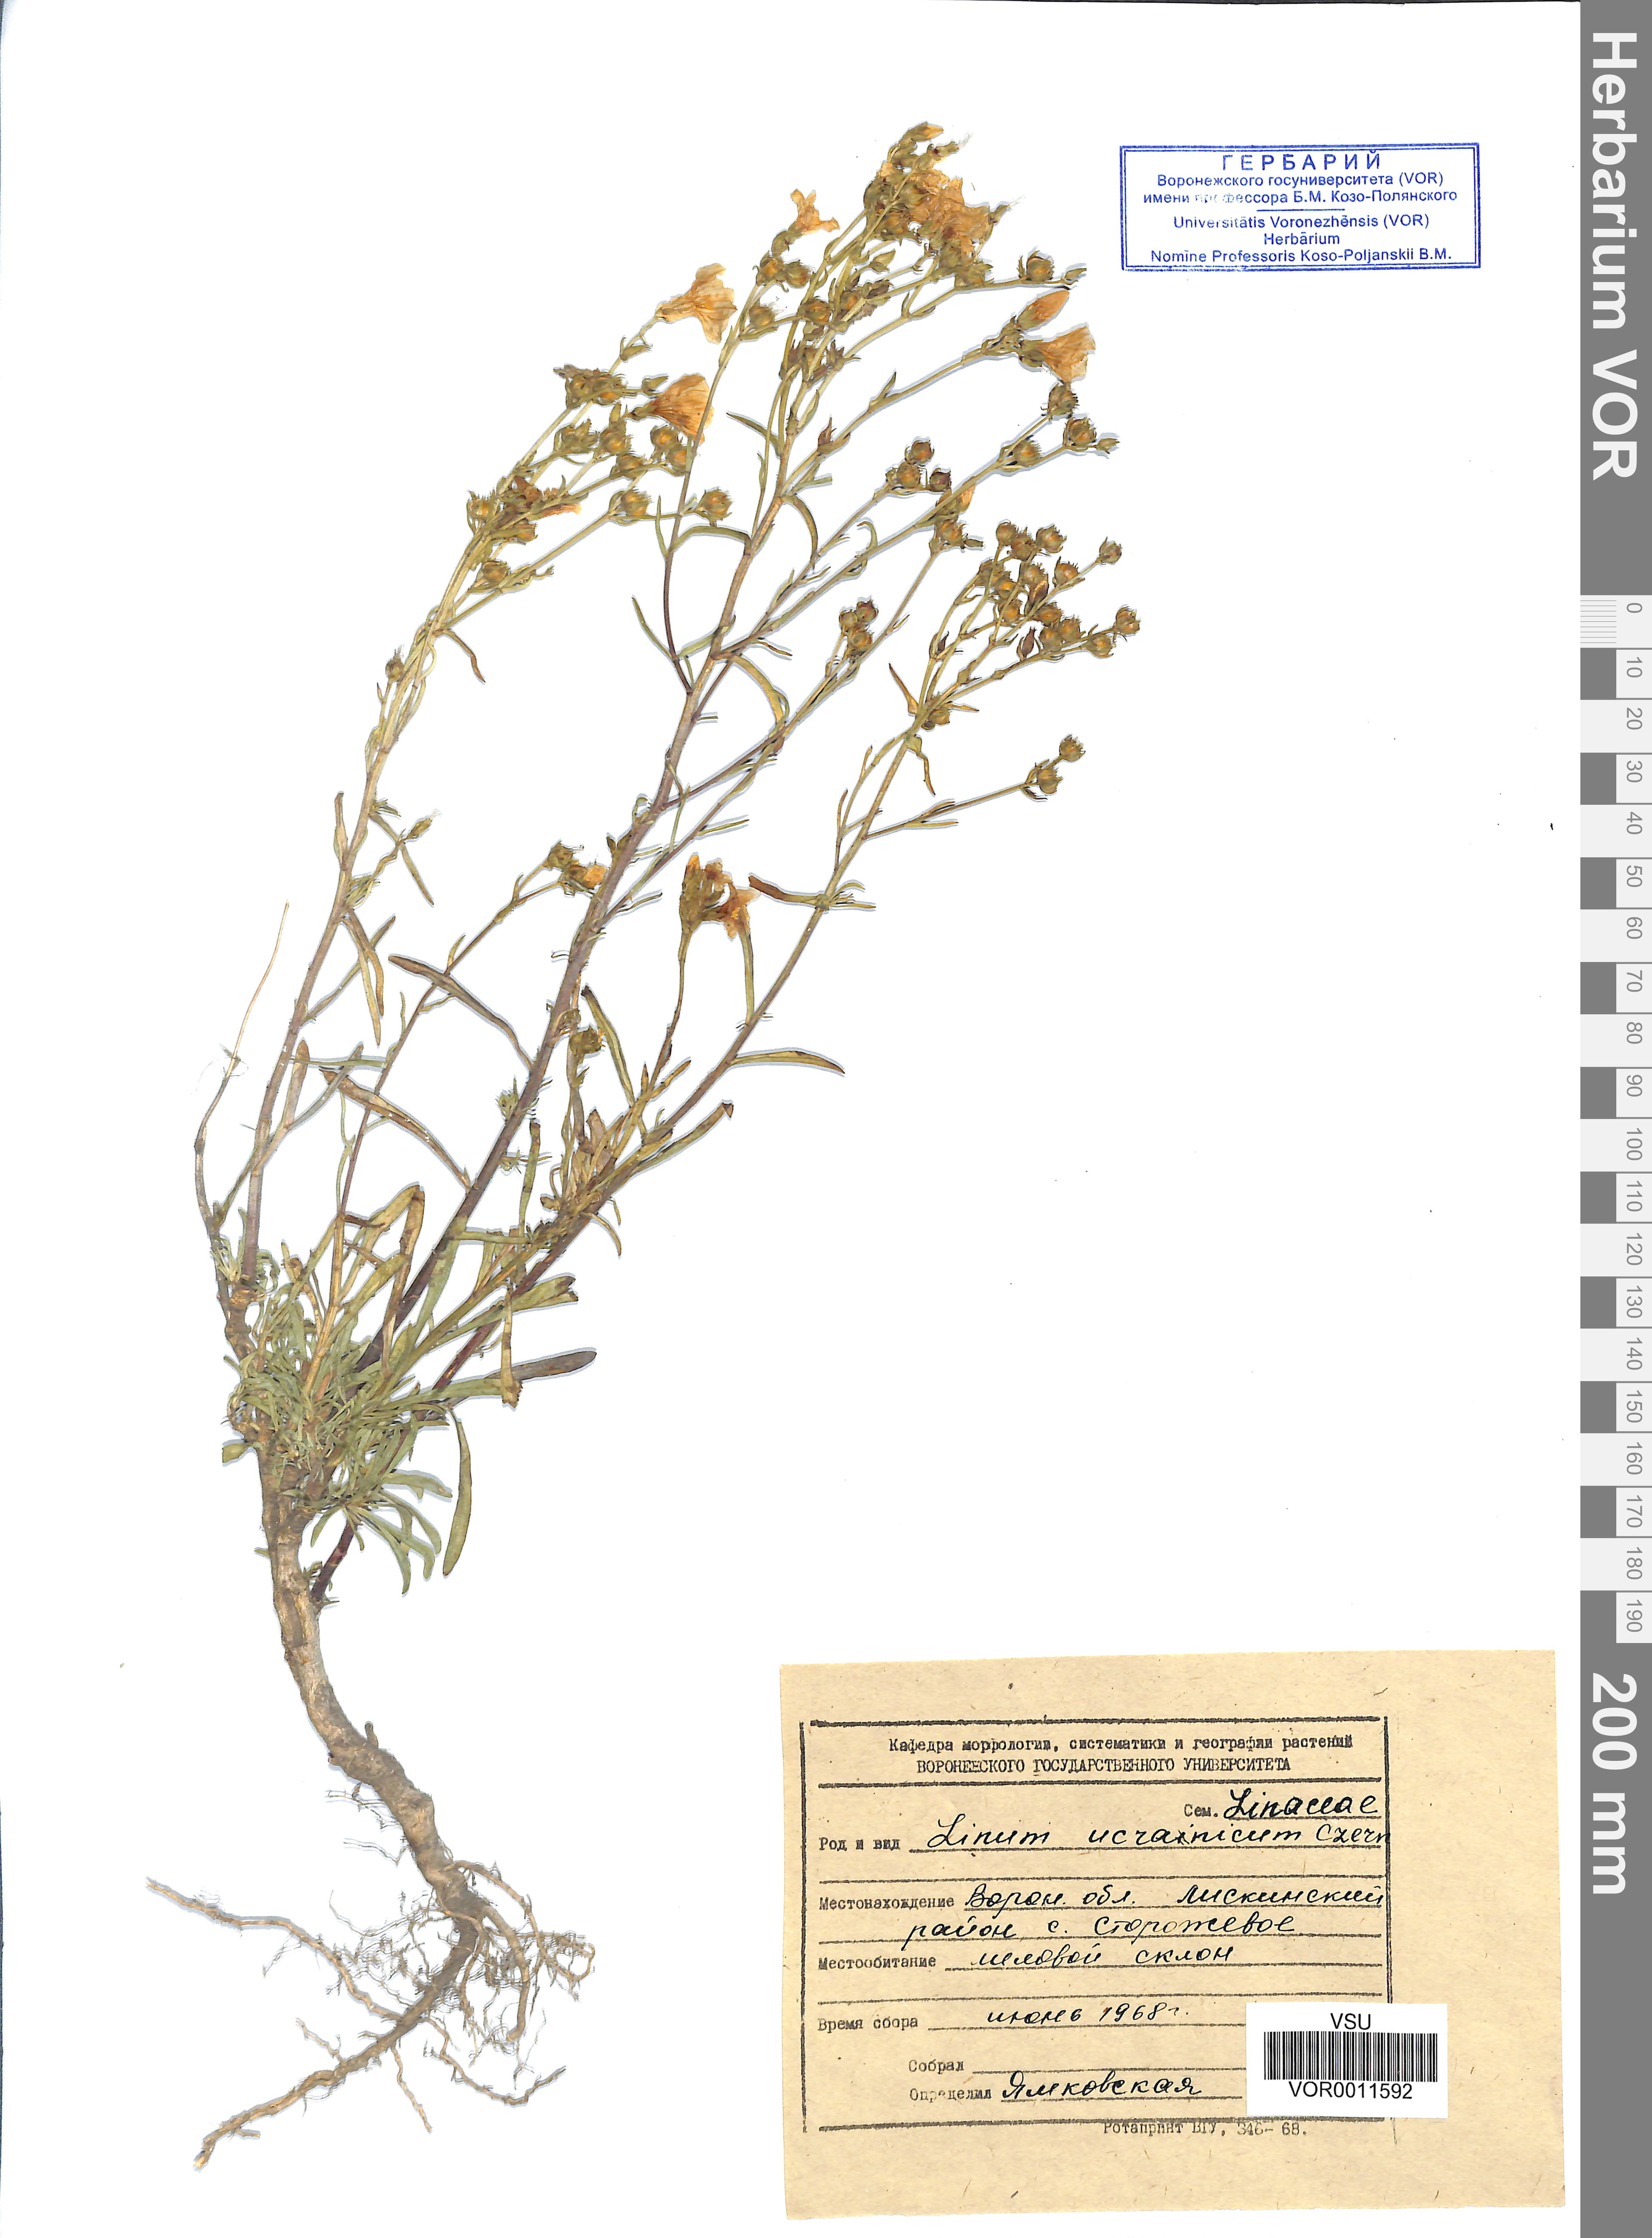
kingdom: Plantae
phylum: Tracheophyta
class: Magnoliopsida
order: Malpighiales
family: Linaceae
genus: Linum
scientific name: Linum ucranicum
